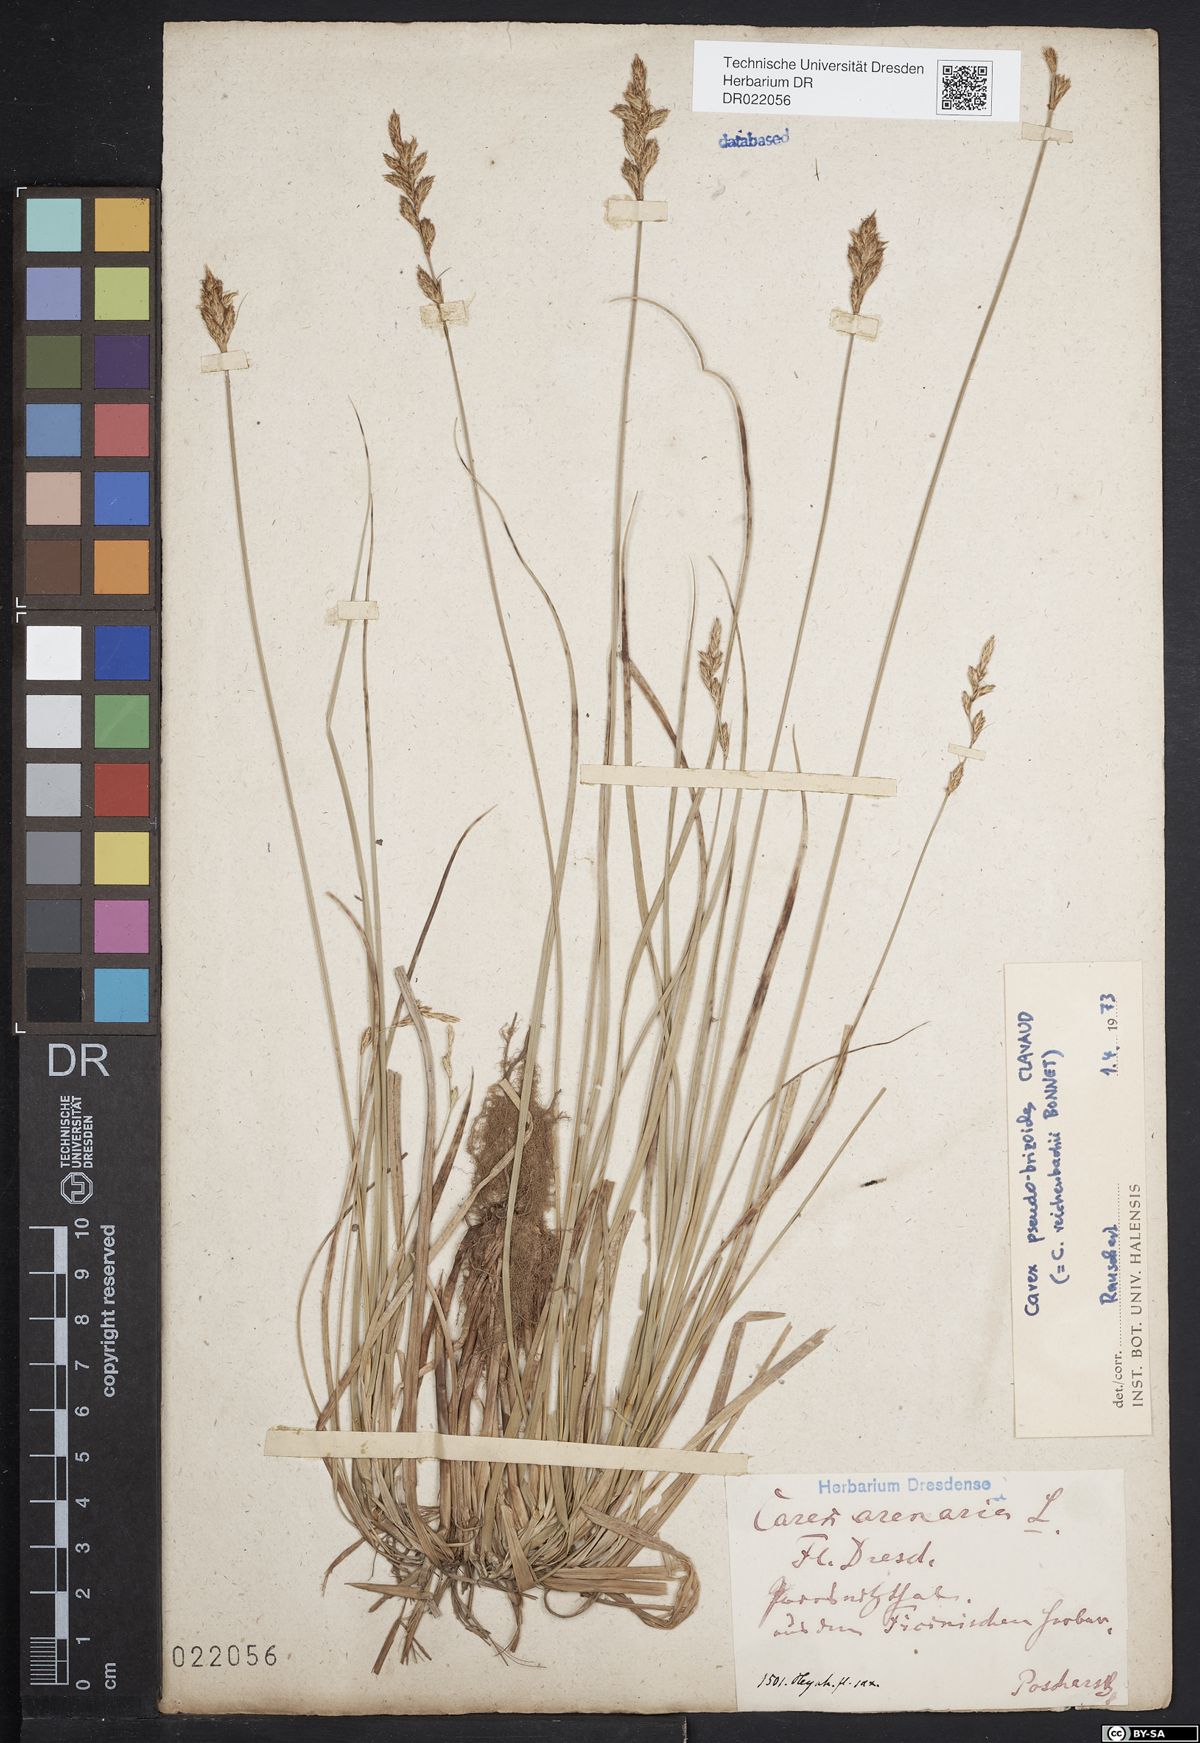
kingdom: Plantae
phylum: Tracheophyta
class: Liliopsida
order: Poales
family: Cyperaceae
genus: Carex
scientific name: Carex pseudobrizoides
